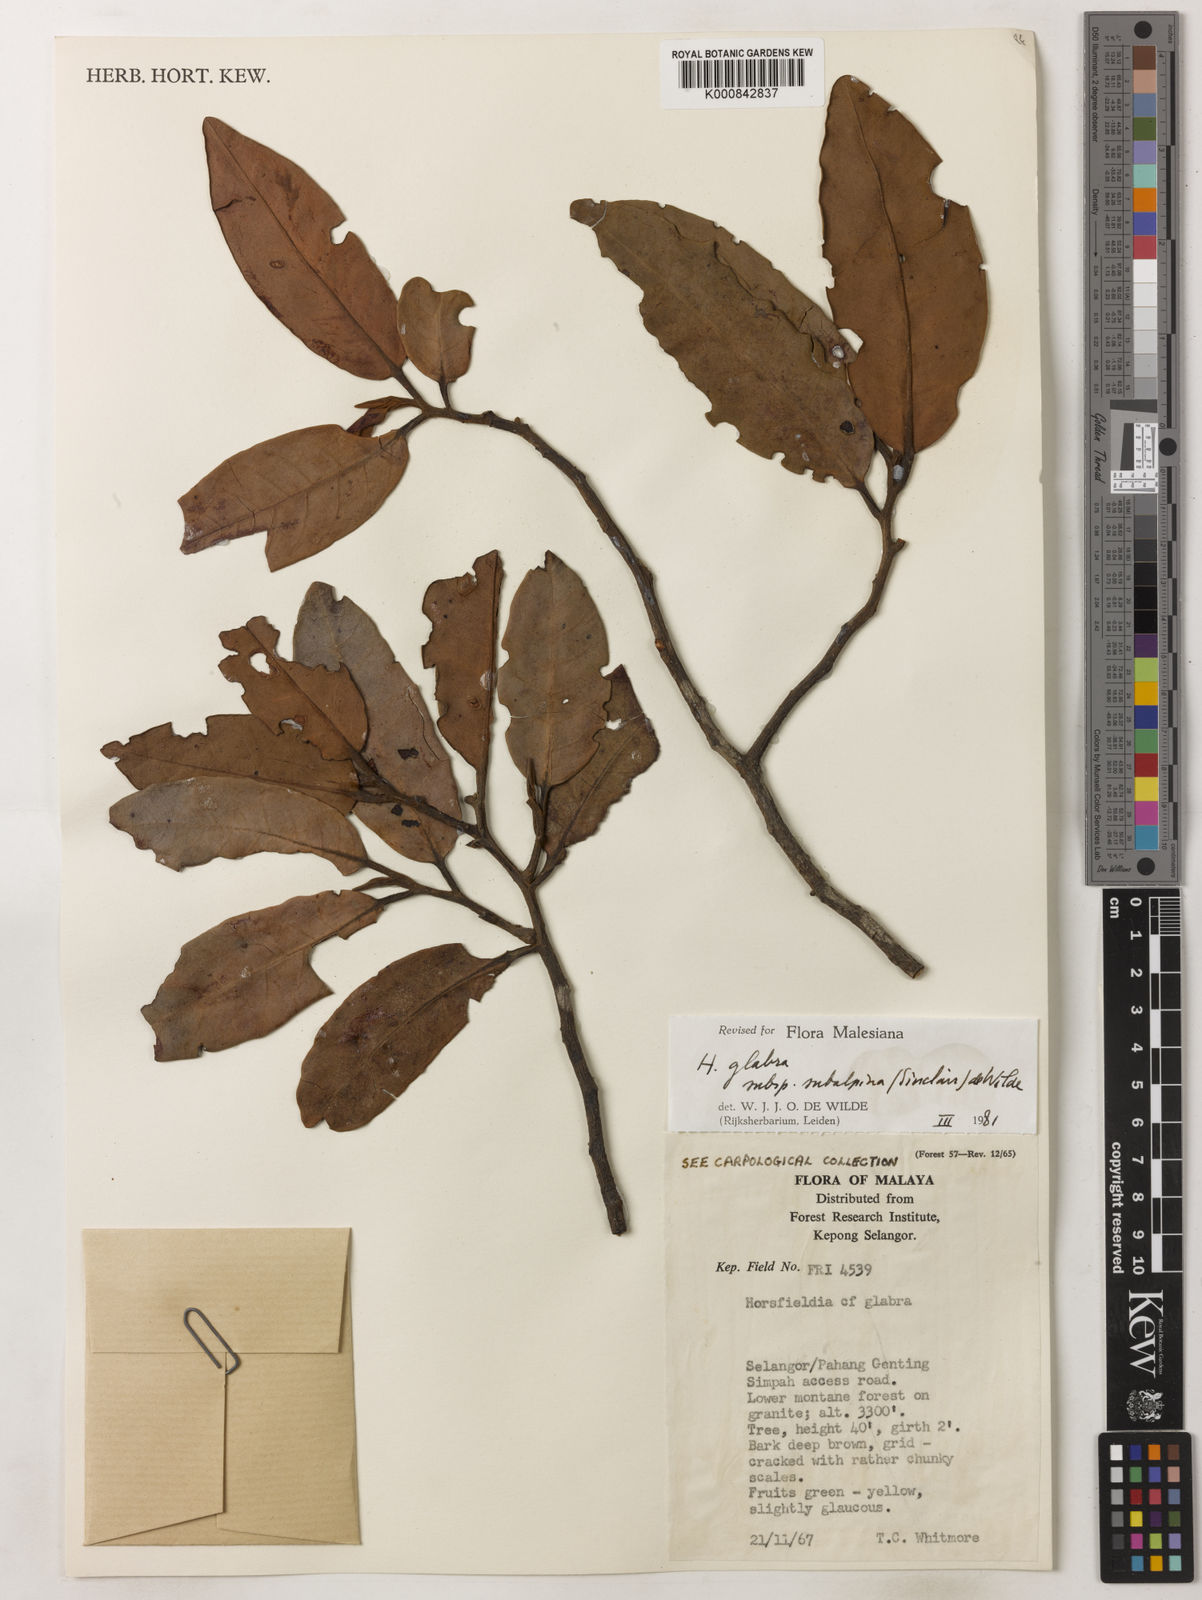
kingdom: Plantae
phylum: Tracheophyta
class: Magnoliopsida
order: Magnoliales
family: Myristicaceae
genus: Horsfieldia
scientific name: Horsfieldia
